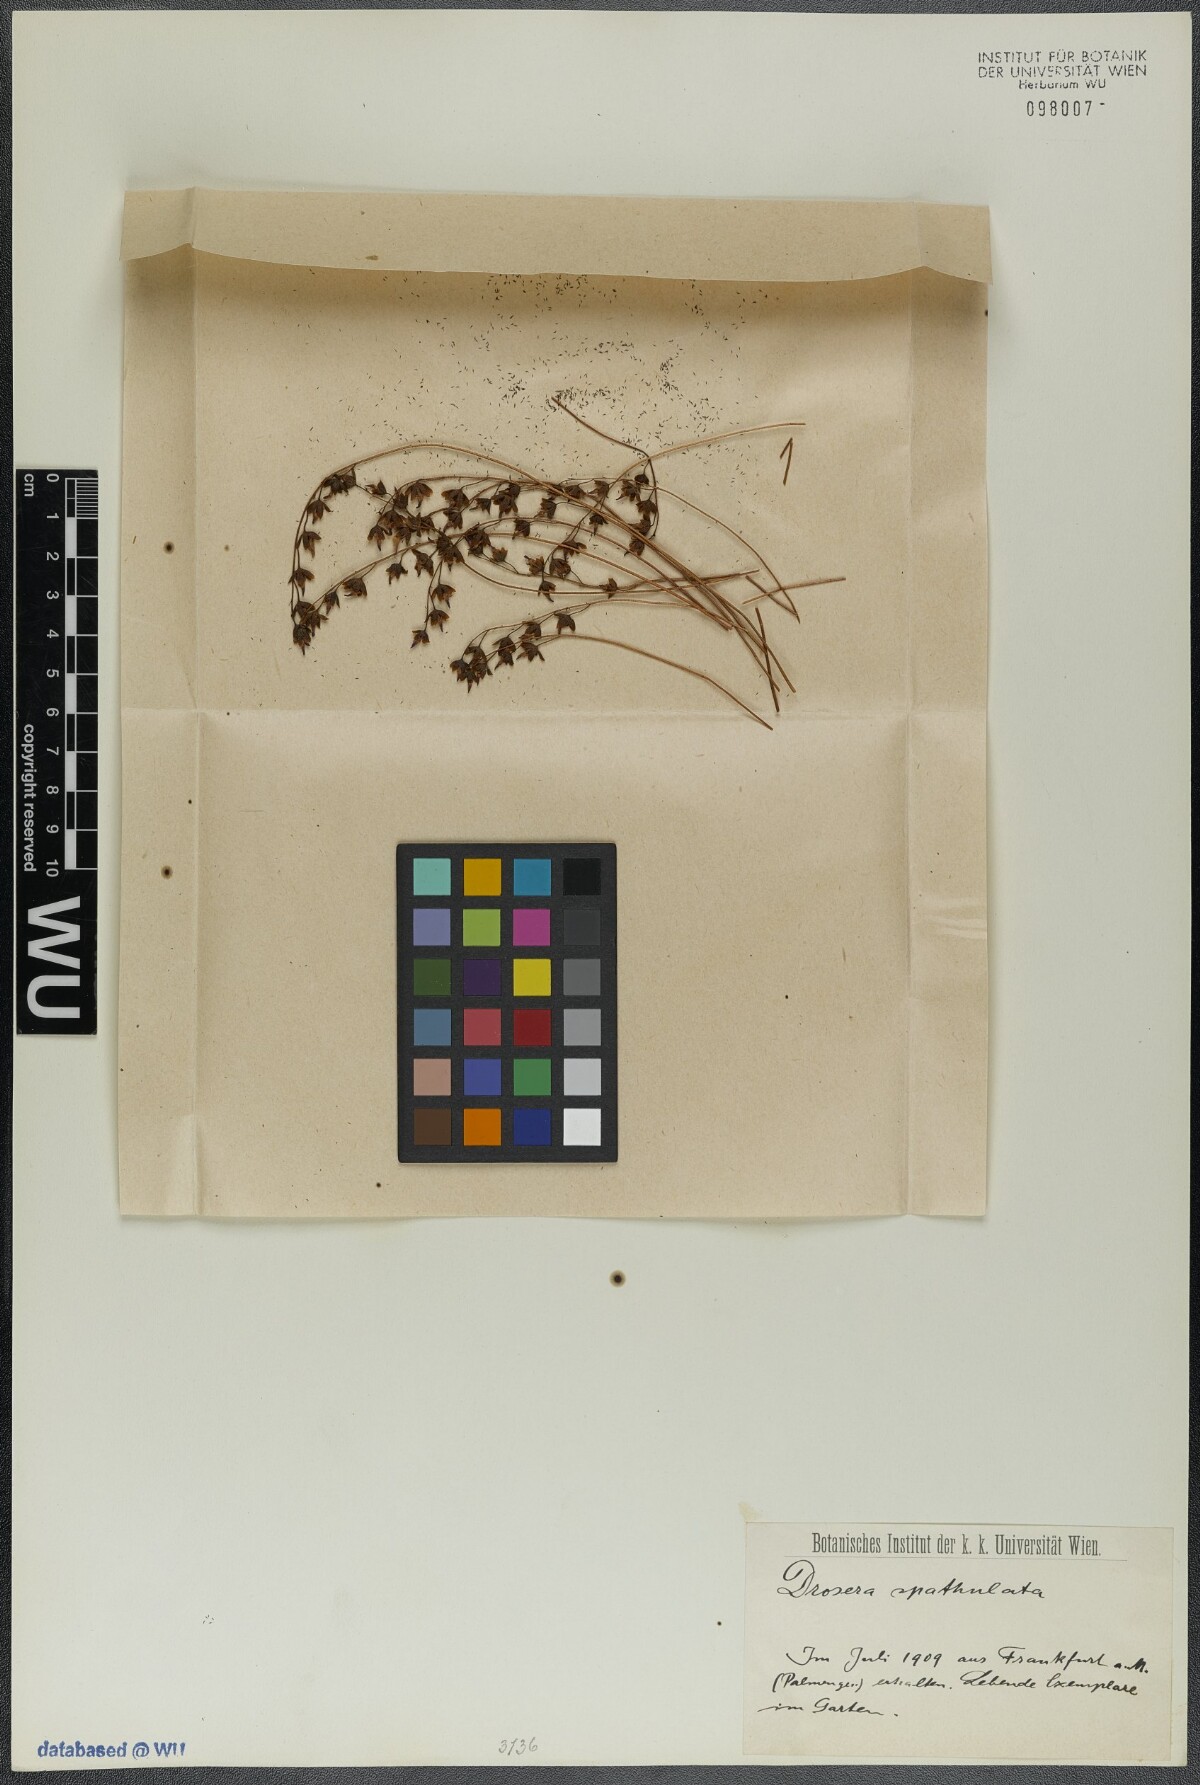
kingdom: Plantae
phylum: Tracheophyta
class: Magnoliopsida
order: Caryophyllales
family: Droseraceae
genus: Drosera
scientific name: Drosera spatulata
